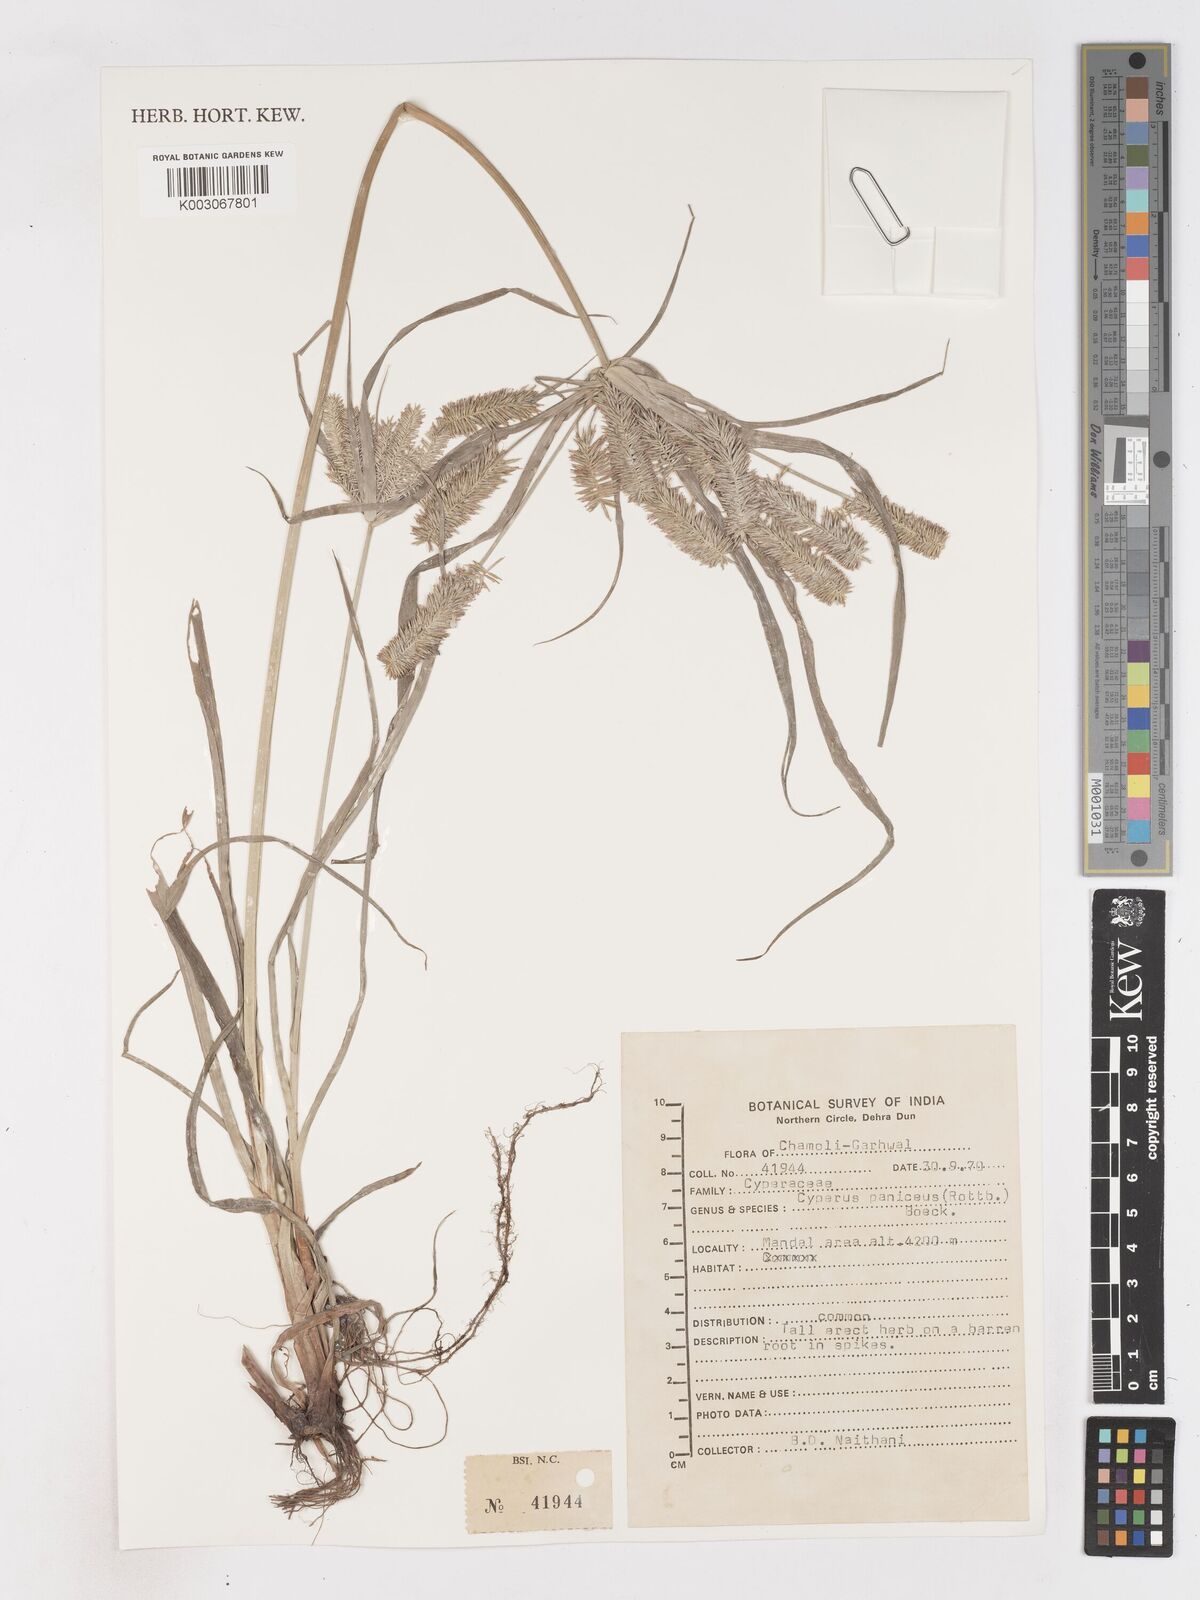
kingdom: Plantae
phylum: Tracheophyta
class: Liliopsida
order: Poales
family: Cyperaceae
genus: Cyperus
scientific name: Cyperus cyperoides
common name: Pacific island flat sedge
